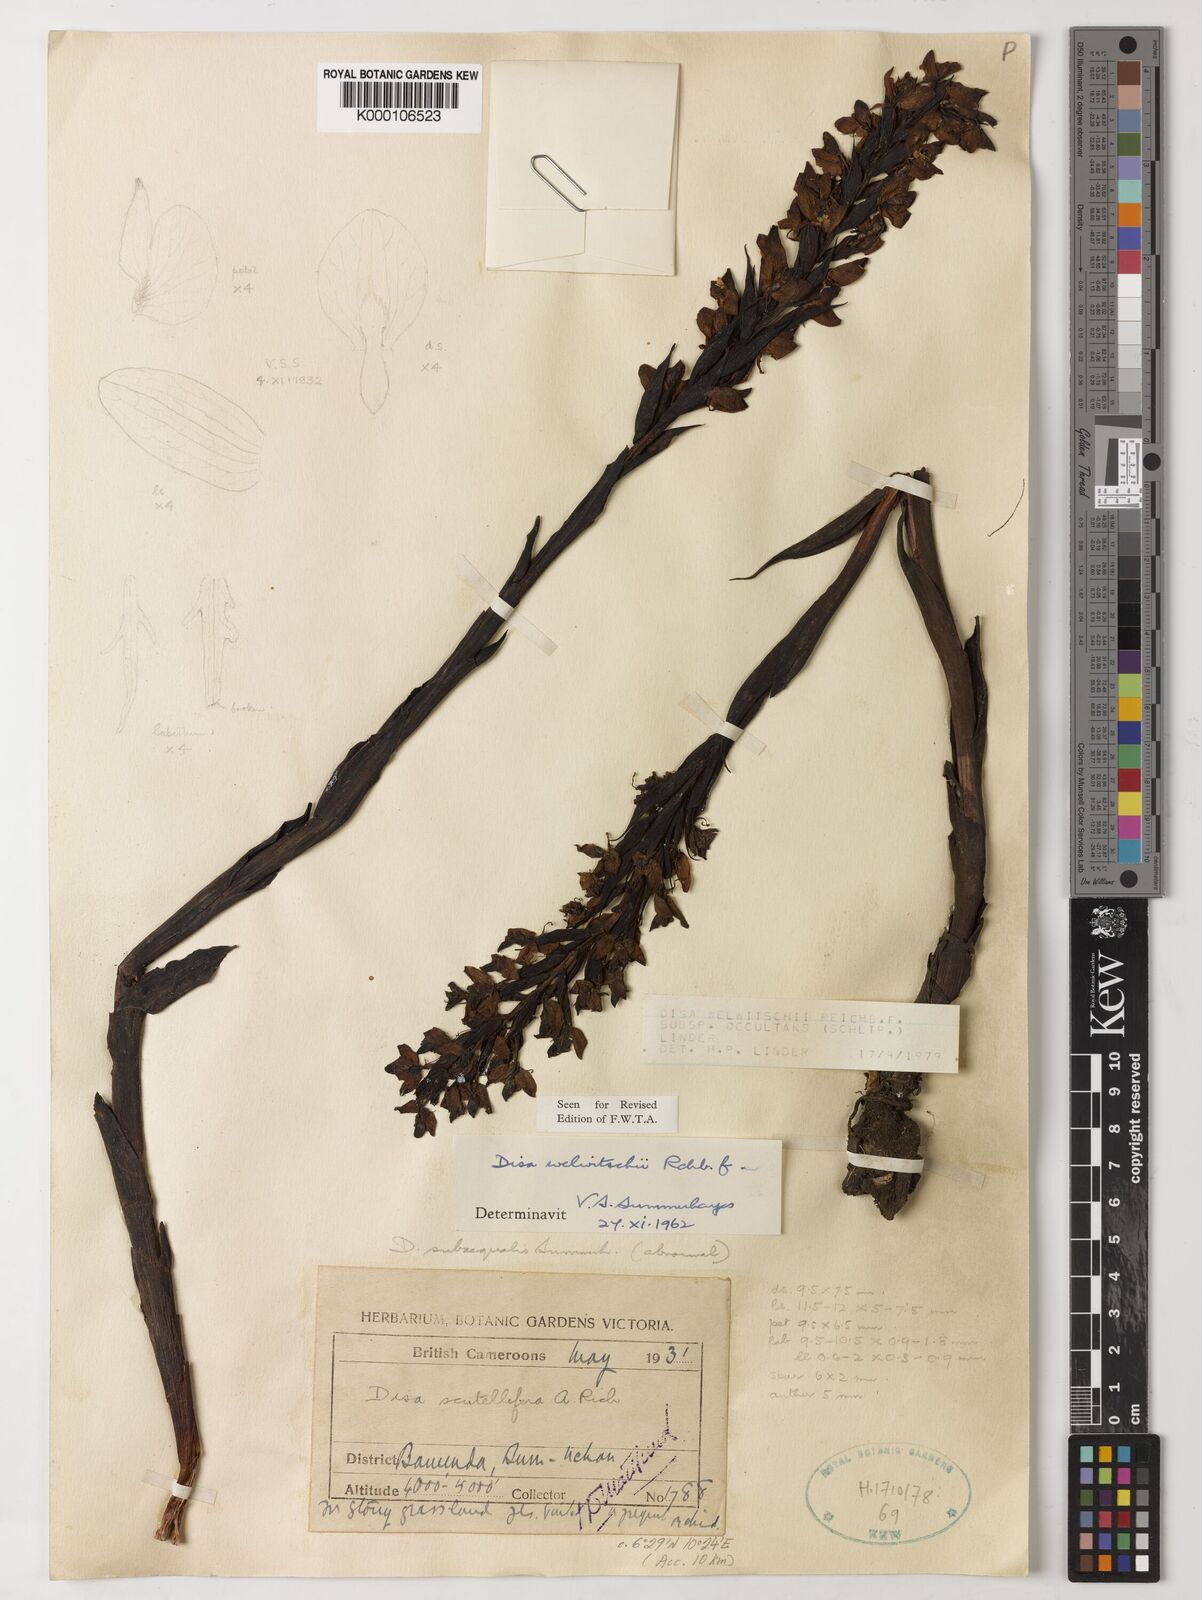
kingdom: Plantae
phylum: Tracheophyta
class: Liliopsida
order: Asparagales
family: Orchidaceae
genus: Disa
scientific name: Disa welwitschii
